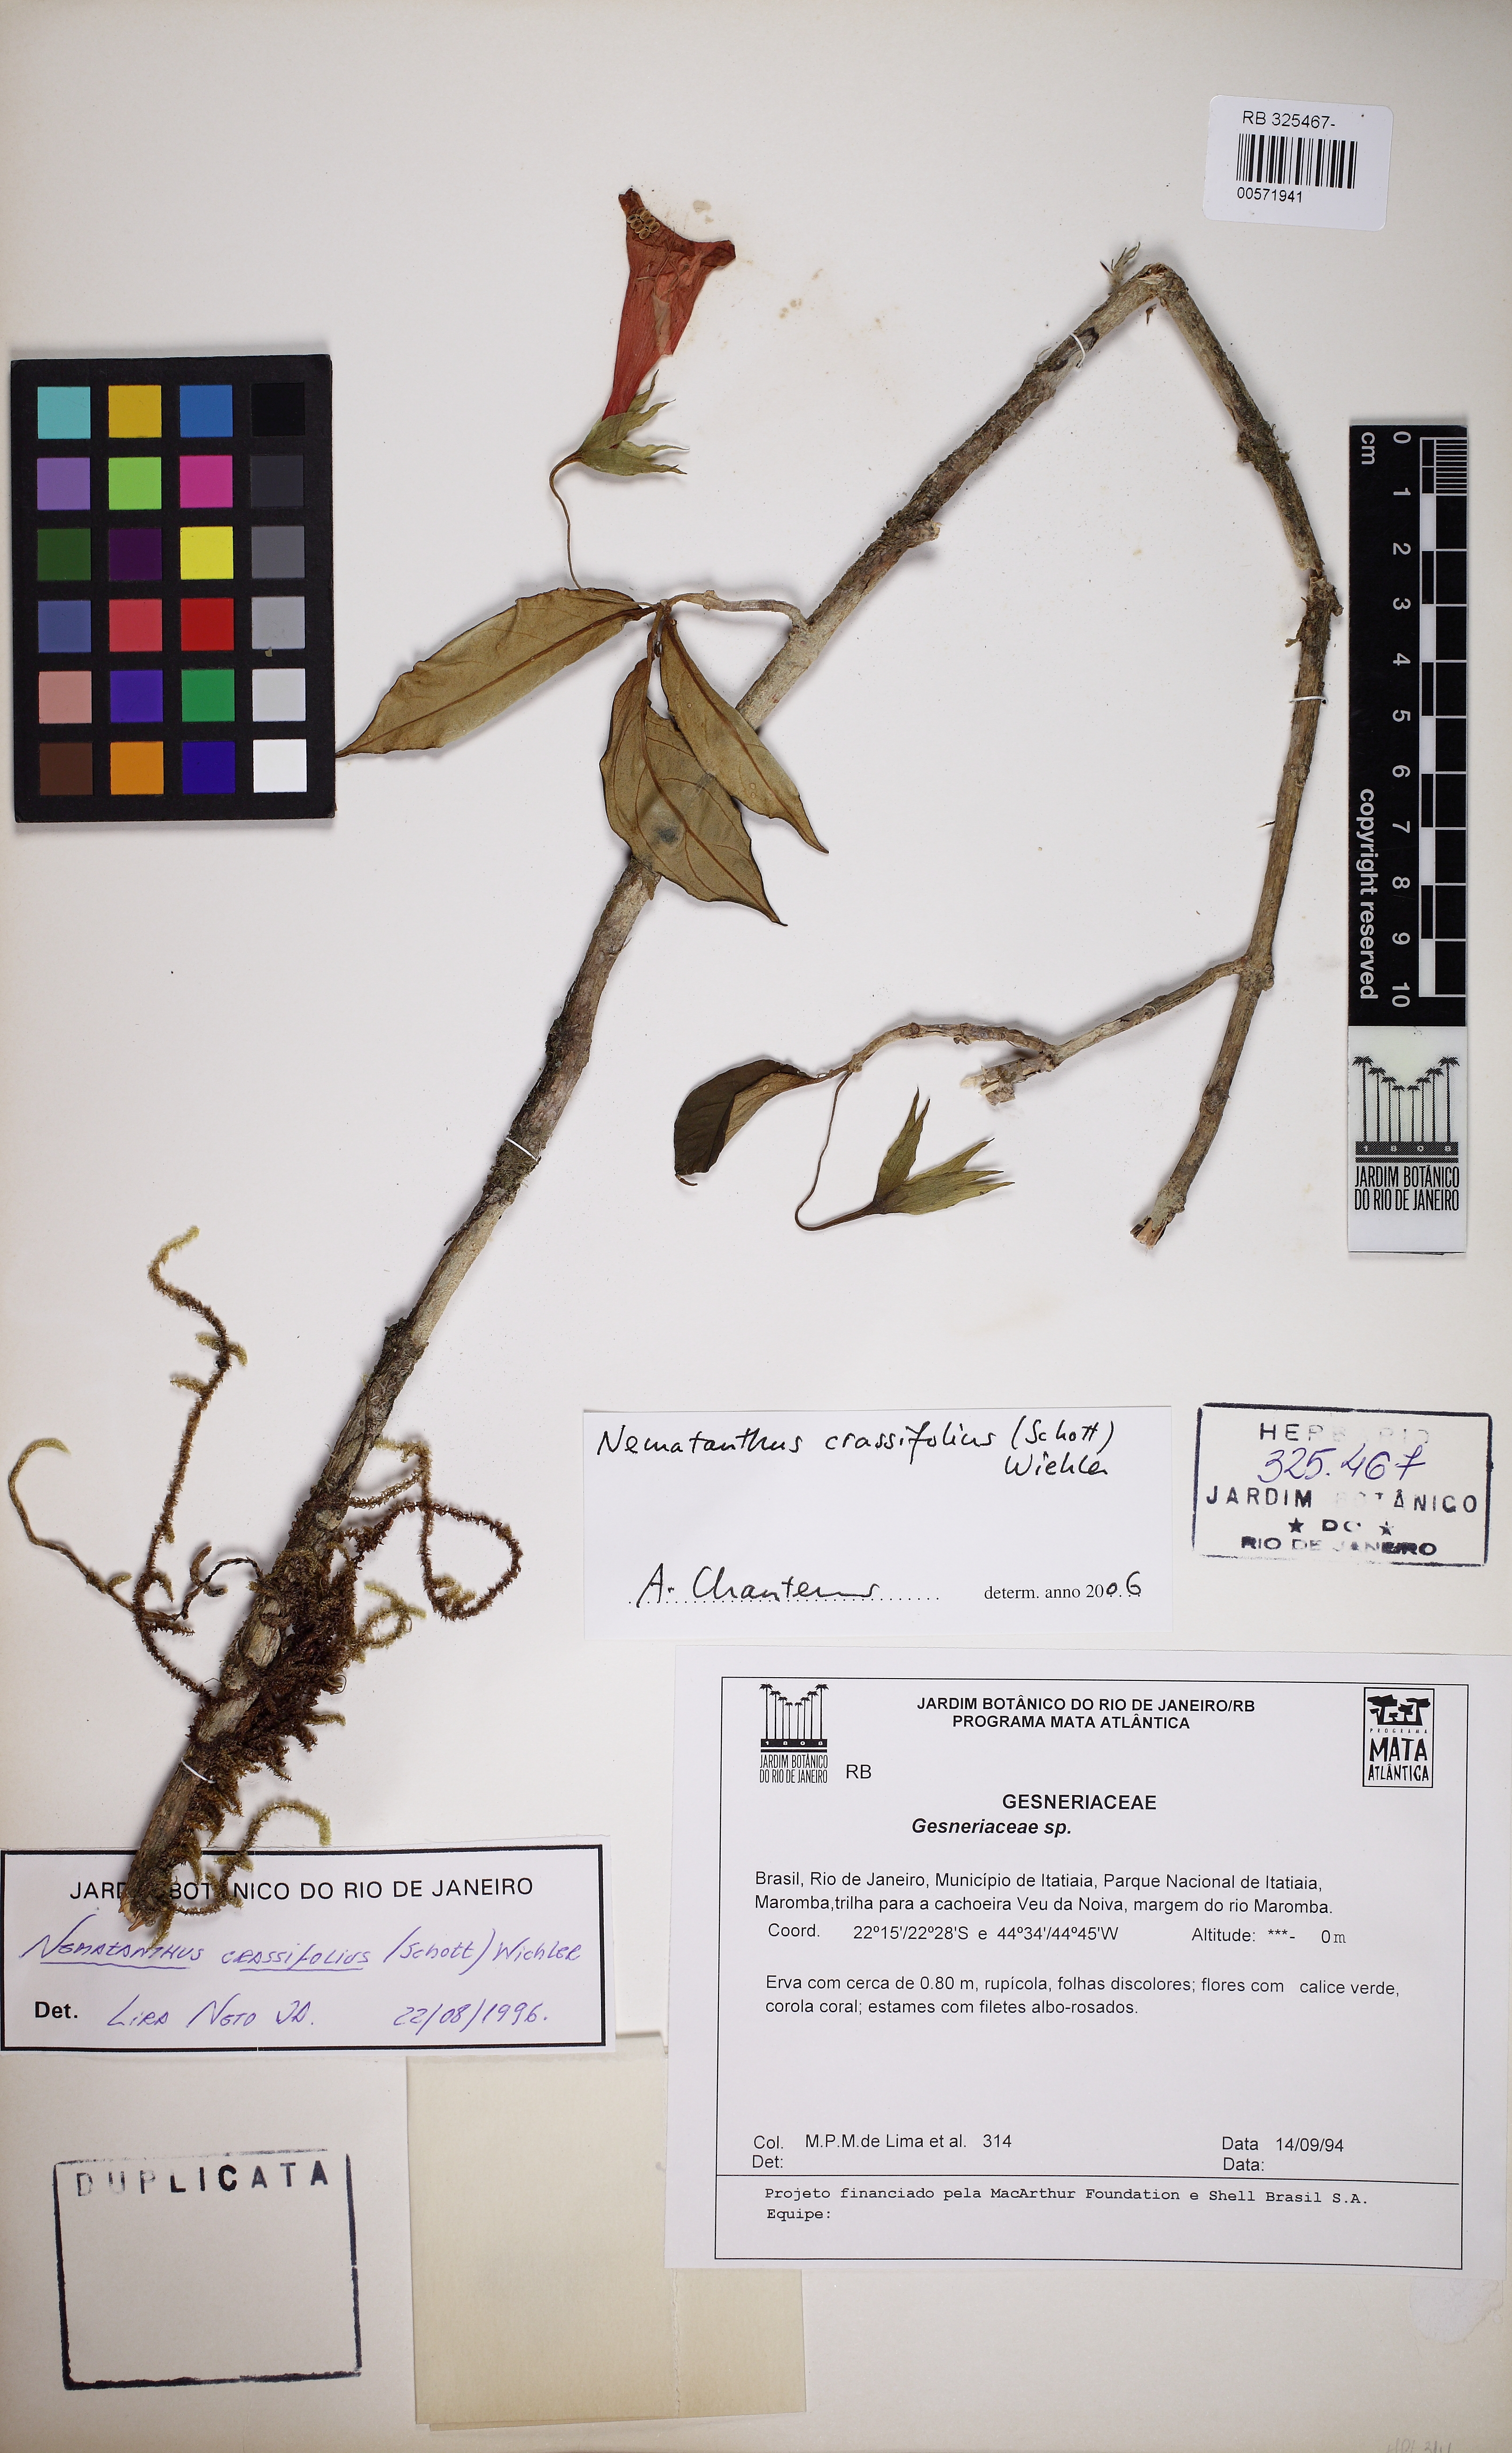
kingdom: Plantae
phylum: Tracheophyta
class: Magnoliopsida
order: Lamiales
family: Gesneriaceae
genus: Nematanthus
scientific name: Nematanthus crassifolius
